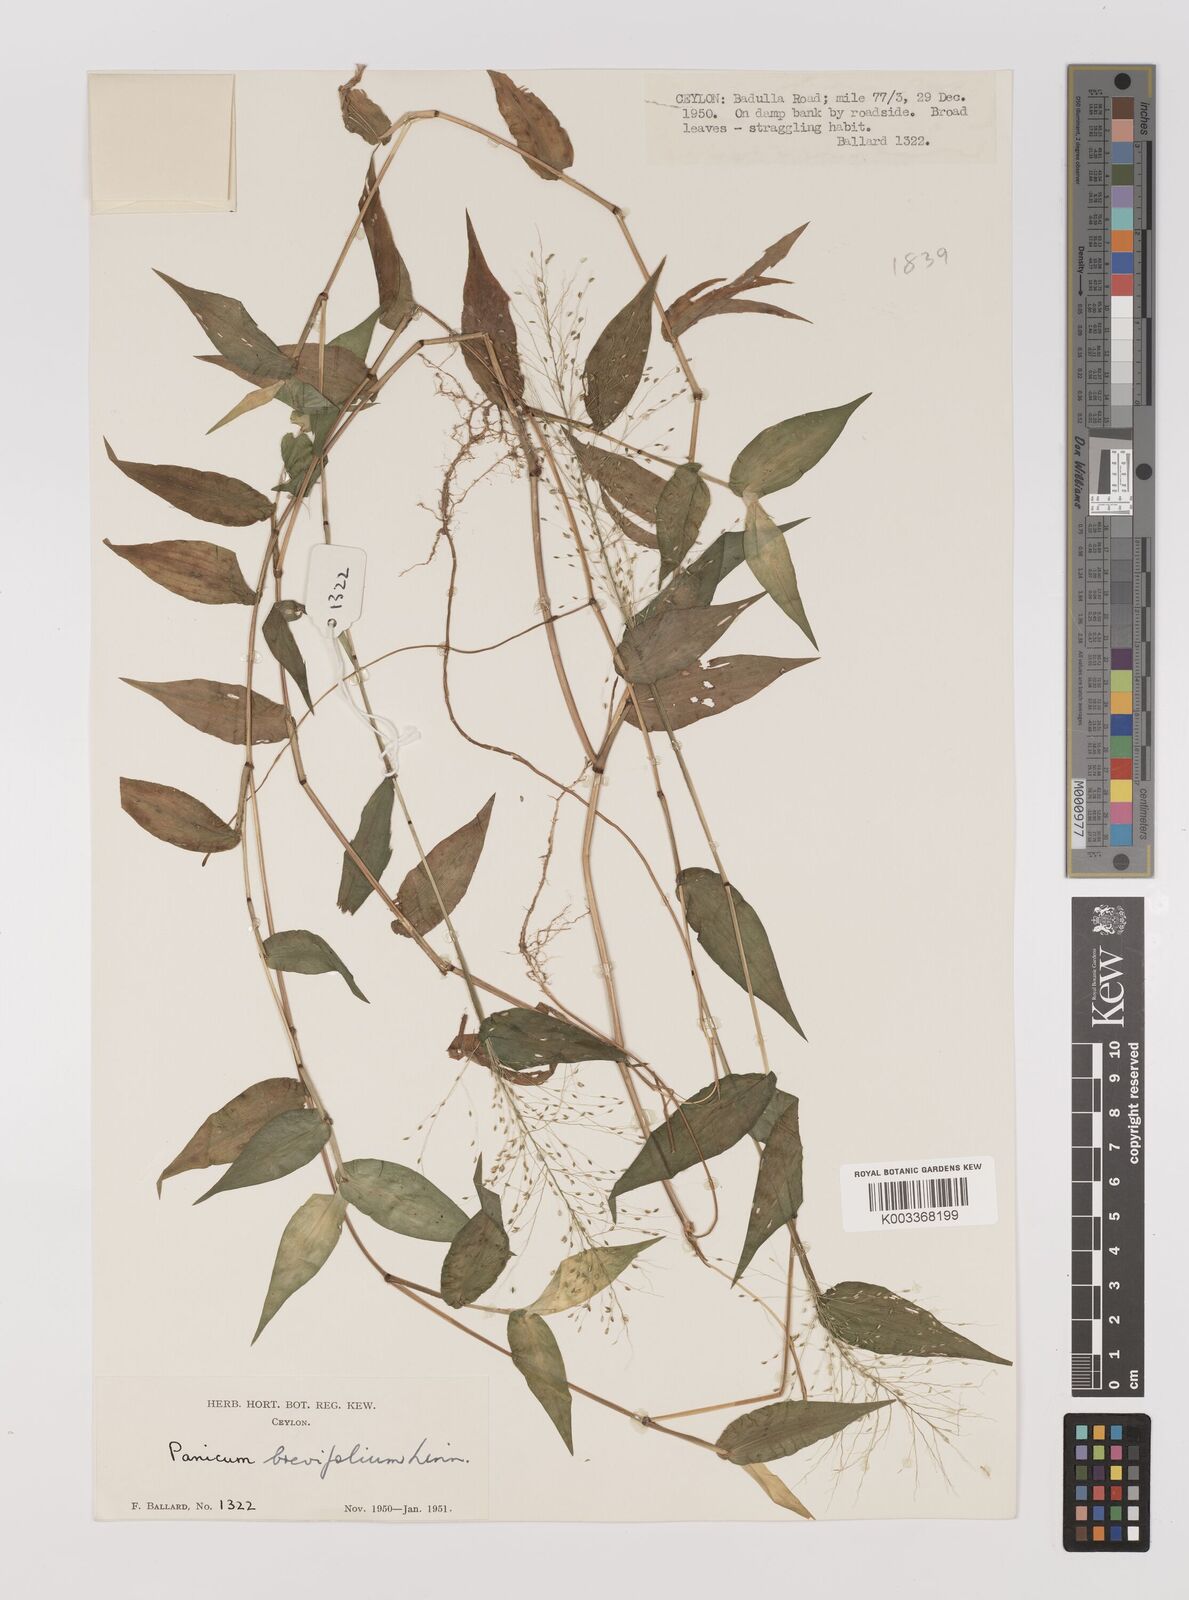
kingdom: Plantae
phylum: Tracheophyta
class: Liliopsida
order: Poales
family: Poaceae
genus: Panicum
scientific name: Panicum brevifolium
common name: Shortleaf panic grass
